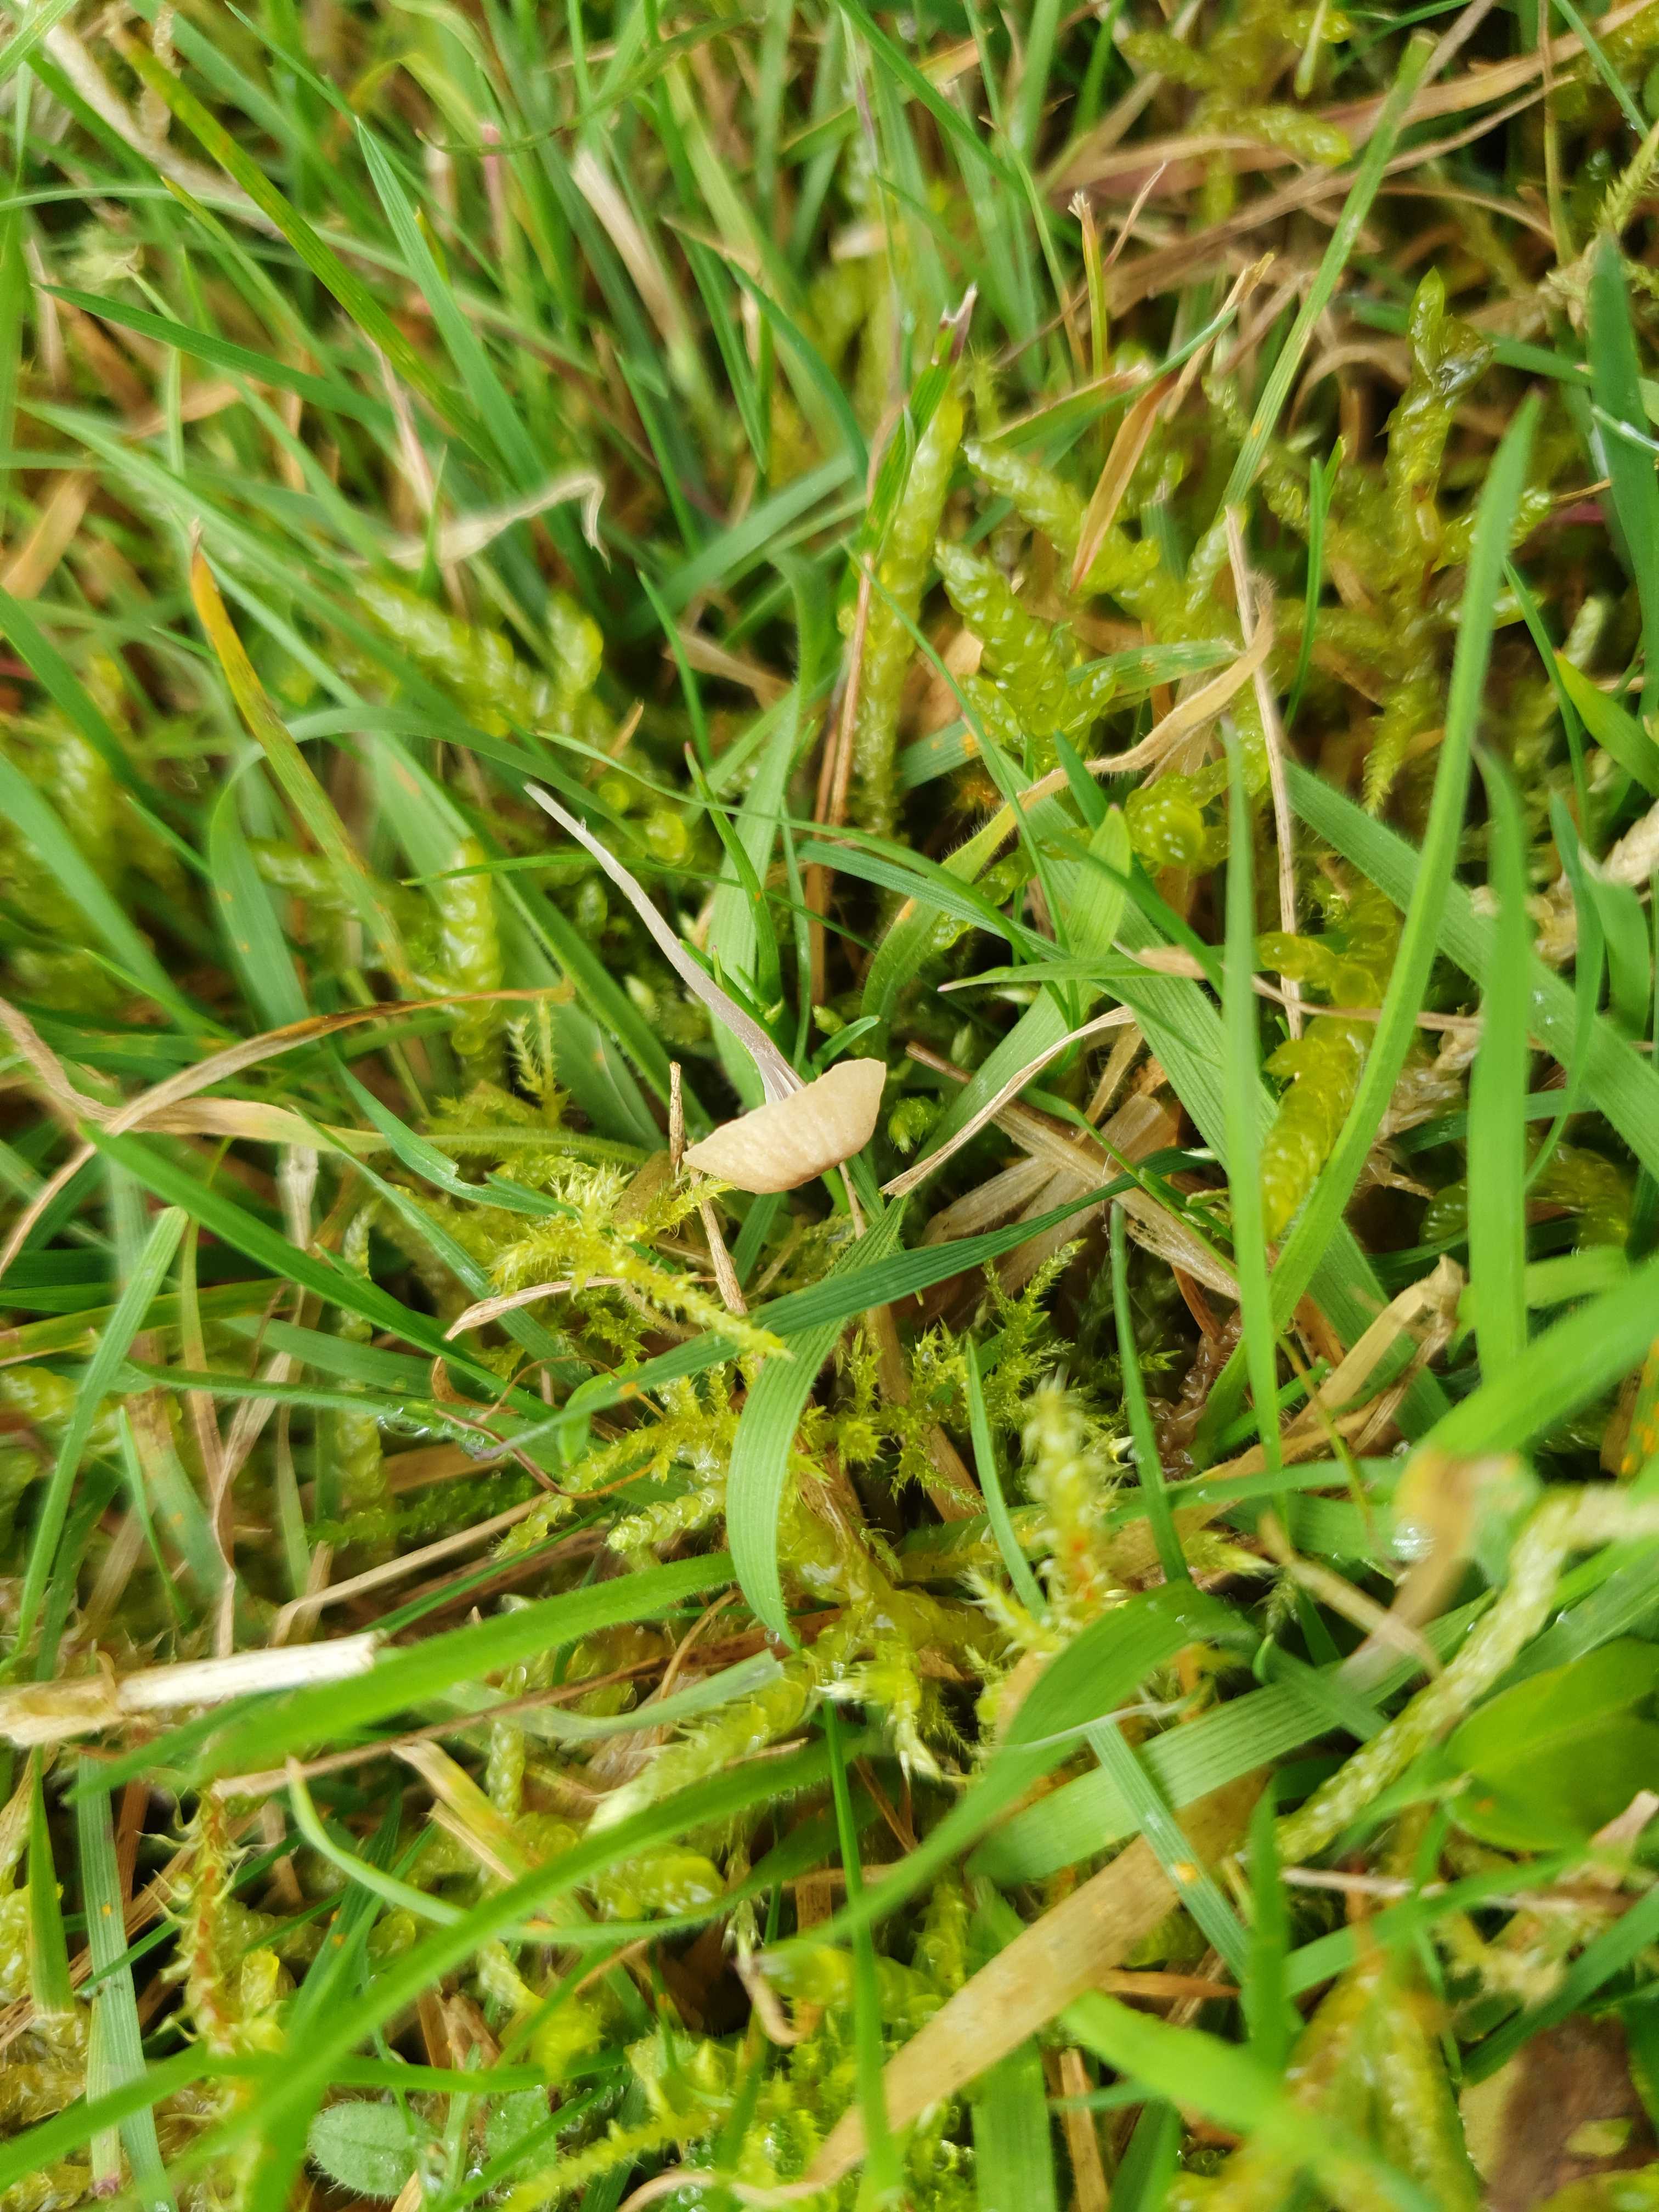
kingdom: Fungi
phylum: Basidiomycota
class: Agaricomycetes
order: Hymenochaetales
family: Rickenellaceae
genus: Rickenella
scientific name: Rickenella swartzii
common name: finstokket mosnavlehat
